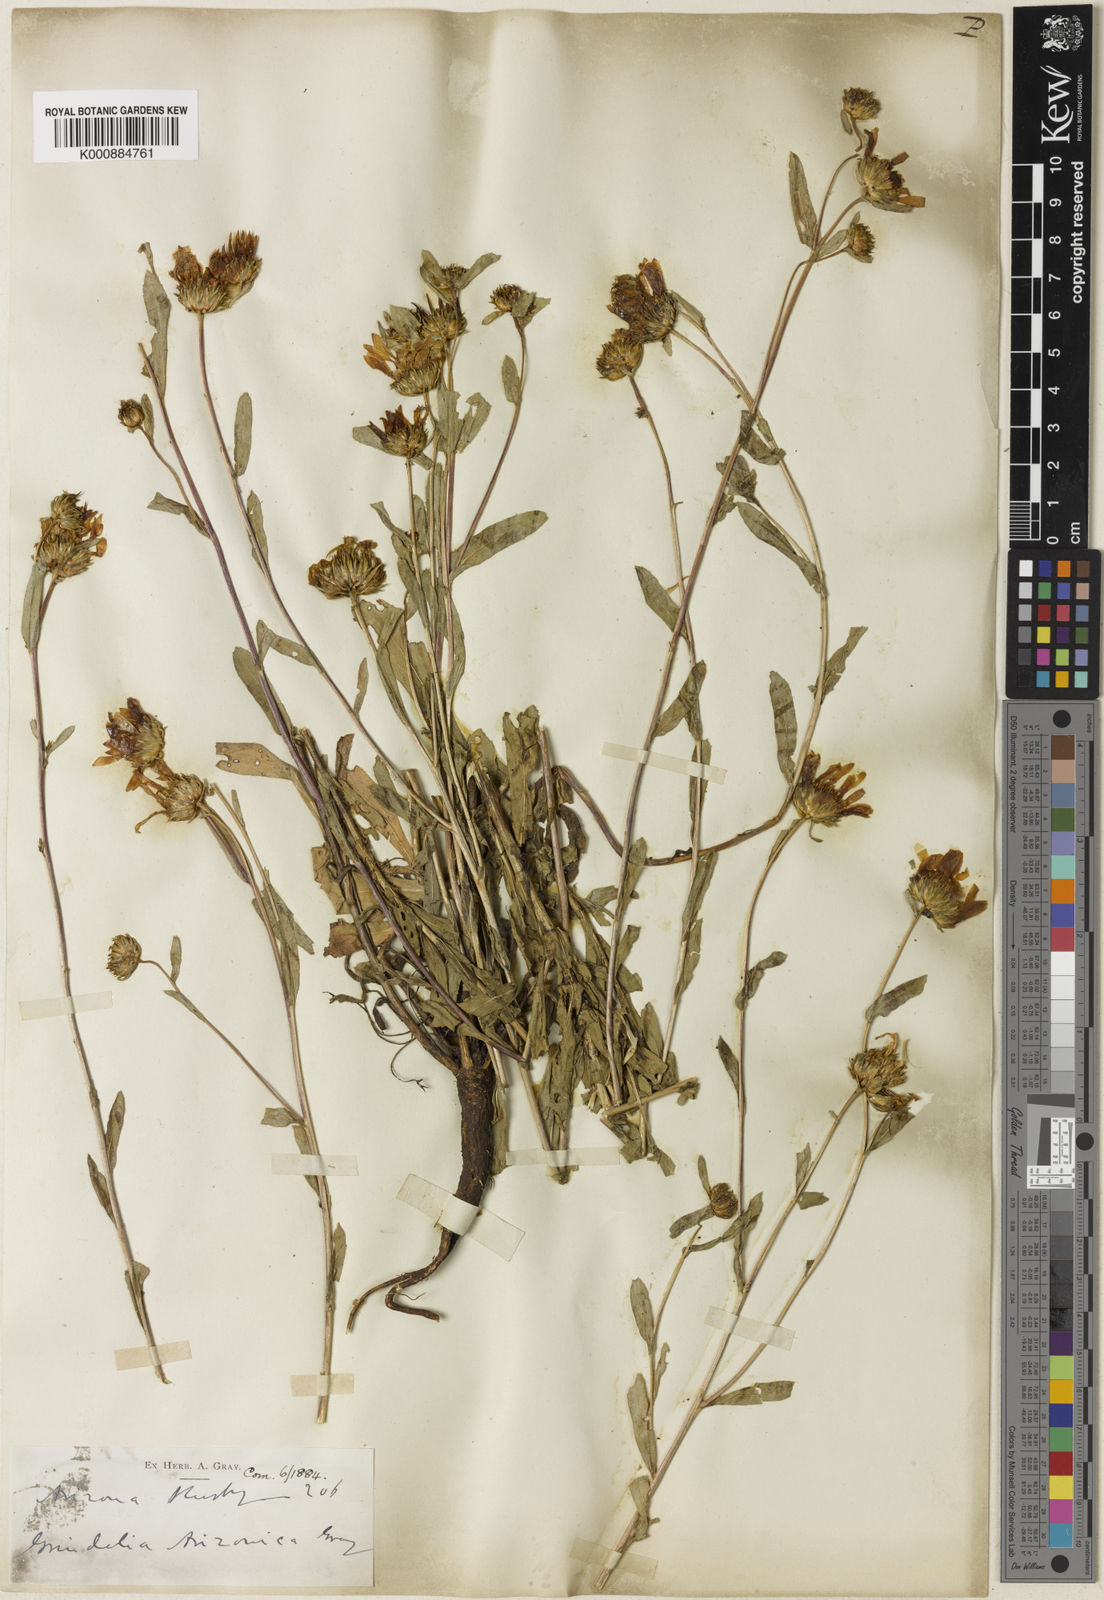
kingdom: Plantae
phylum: Tracheophyta
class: Magnoliopsida
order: Asterales
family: Asteraceae
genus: Grindelia
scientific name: Grindelia arizonica
